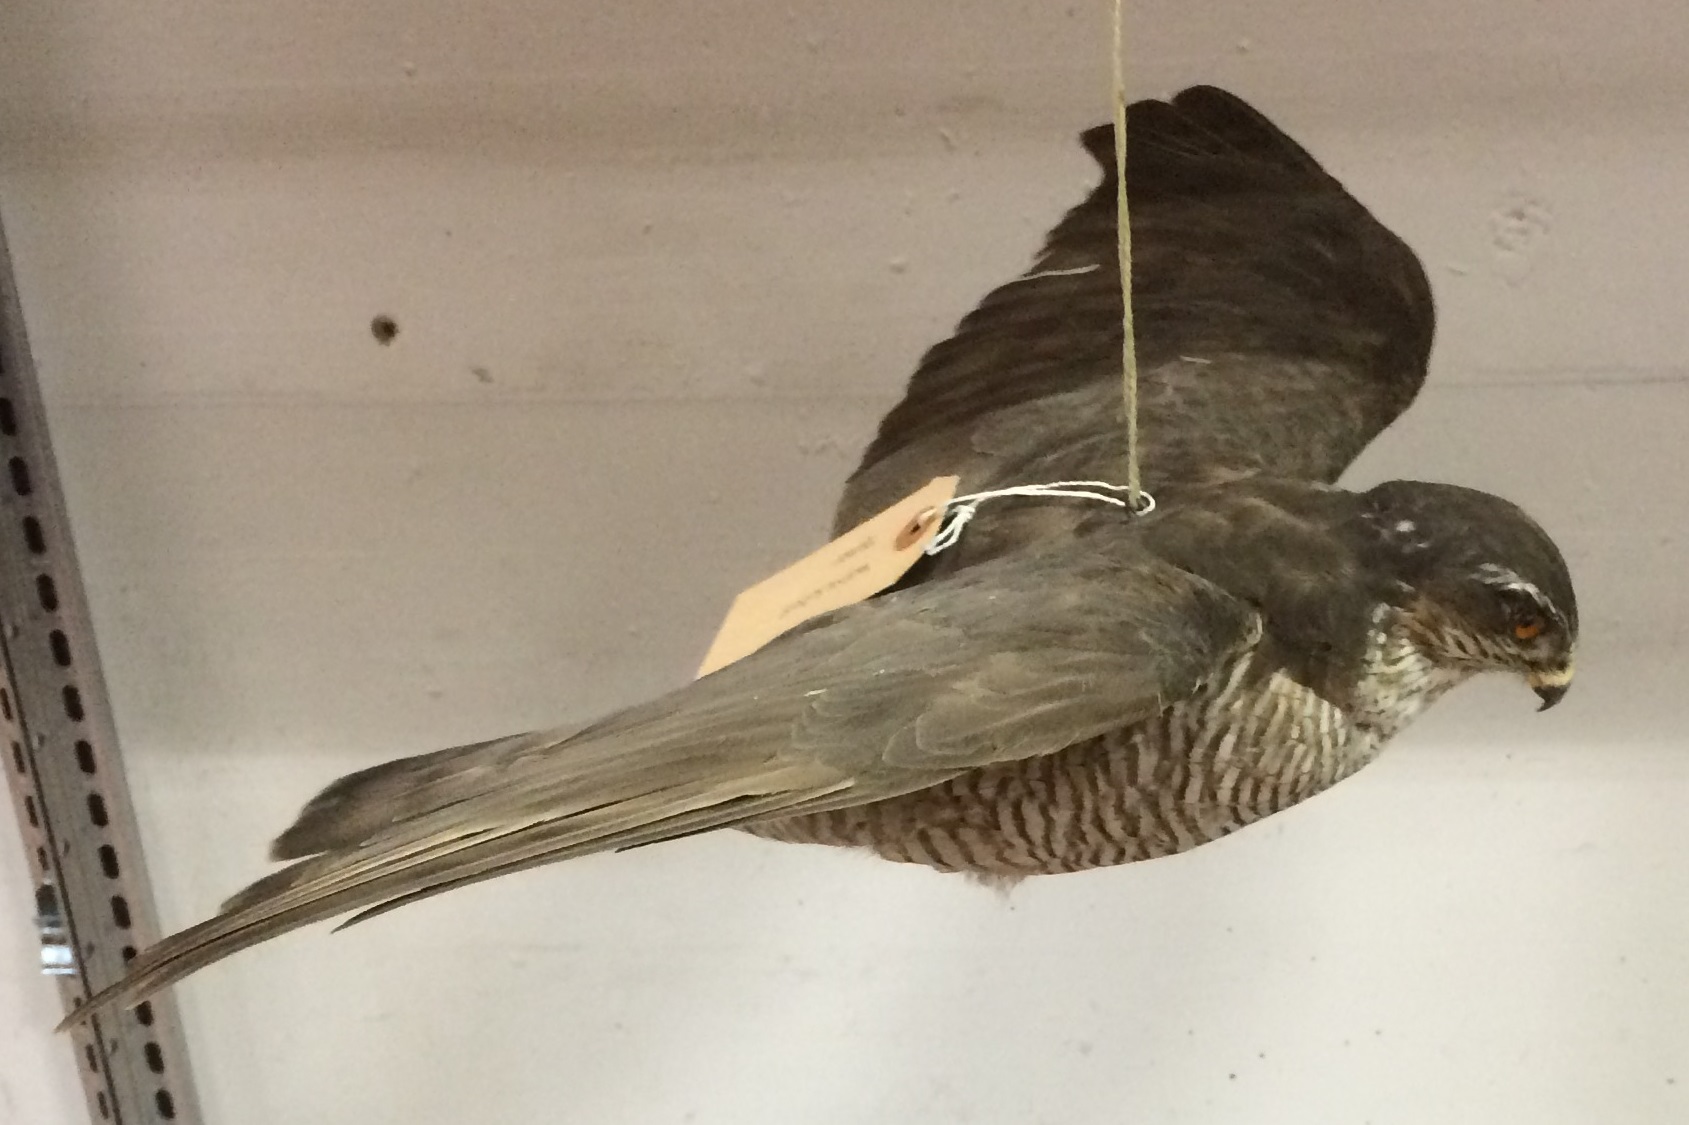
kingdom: Animalia
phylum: Chordata
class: Aves
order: Accipitriformes
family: Accipitridae
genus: Accipiter
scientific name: Accipiter nisus
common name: Eurasian sparrowhawk
